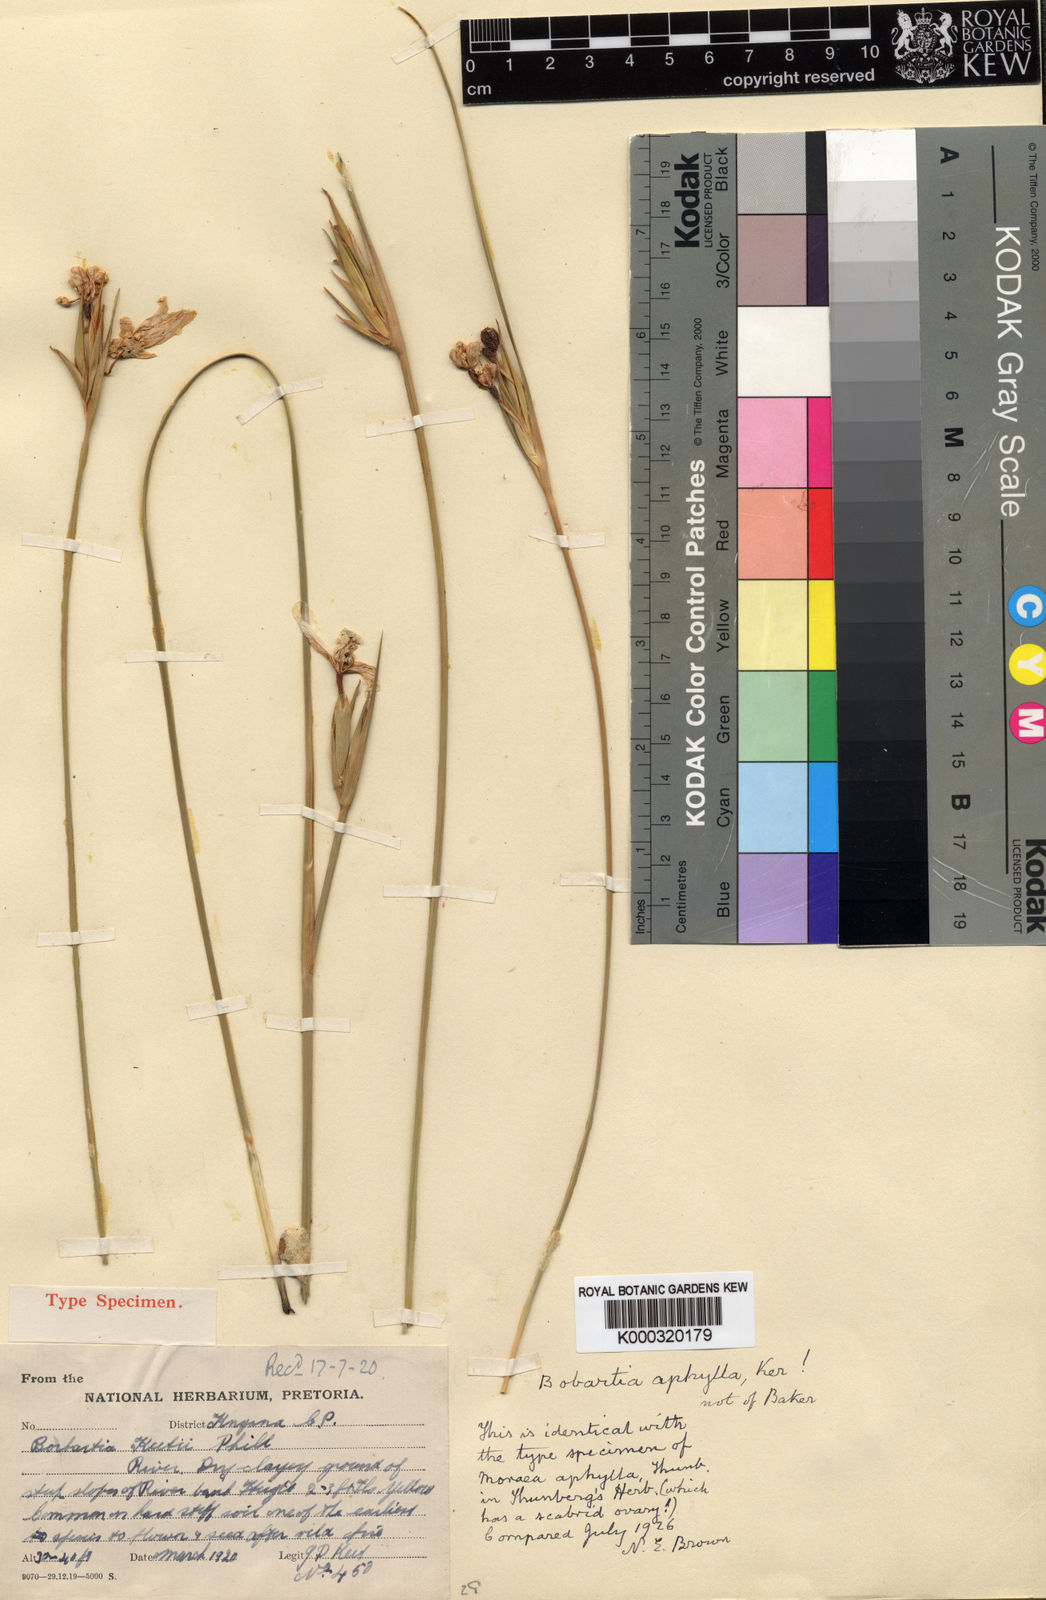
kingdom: Plantae
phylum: Tracheophyta
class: Liliopsida
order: Asparagales
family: Iridaceae
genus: Bobartia
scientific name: Bobartia aphylla
